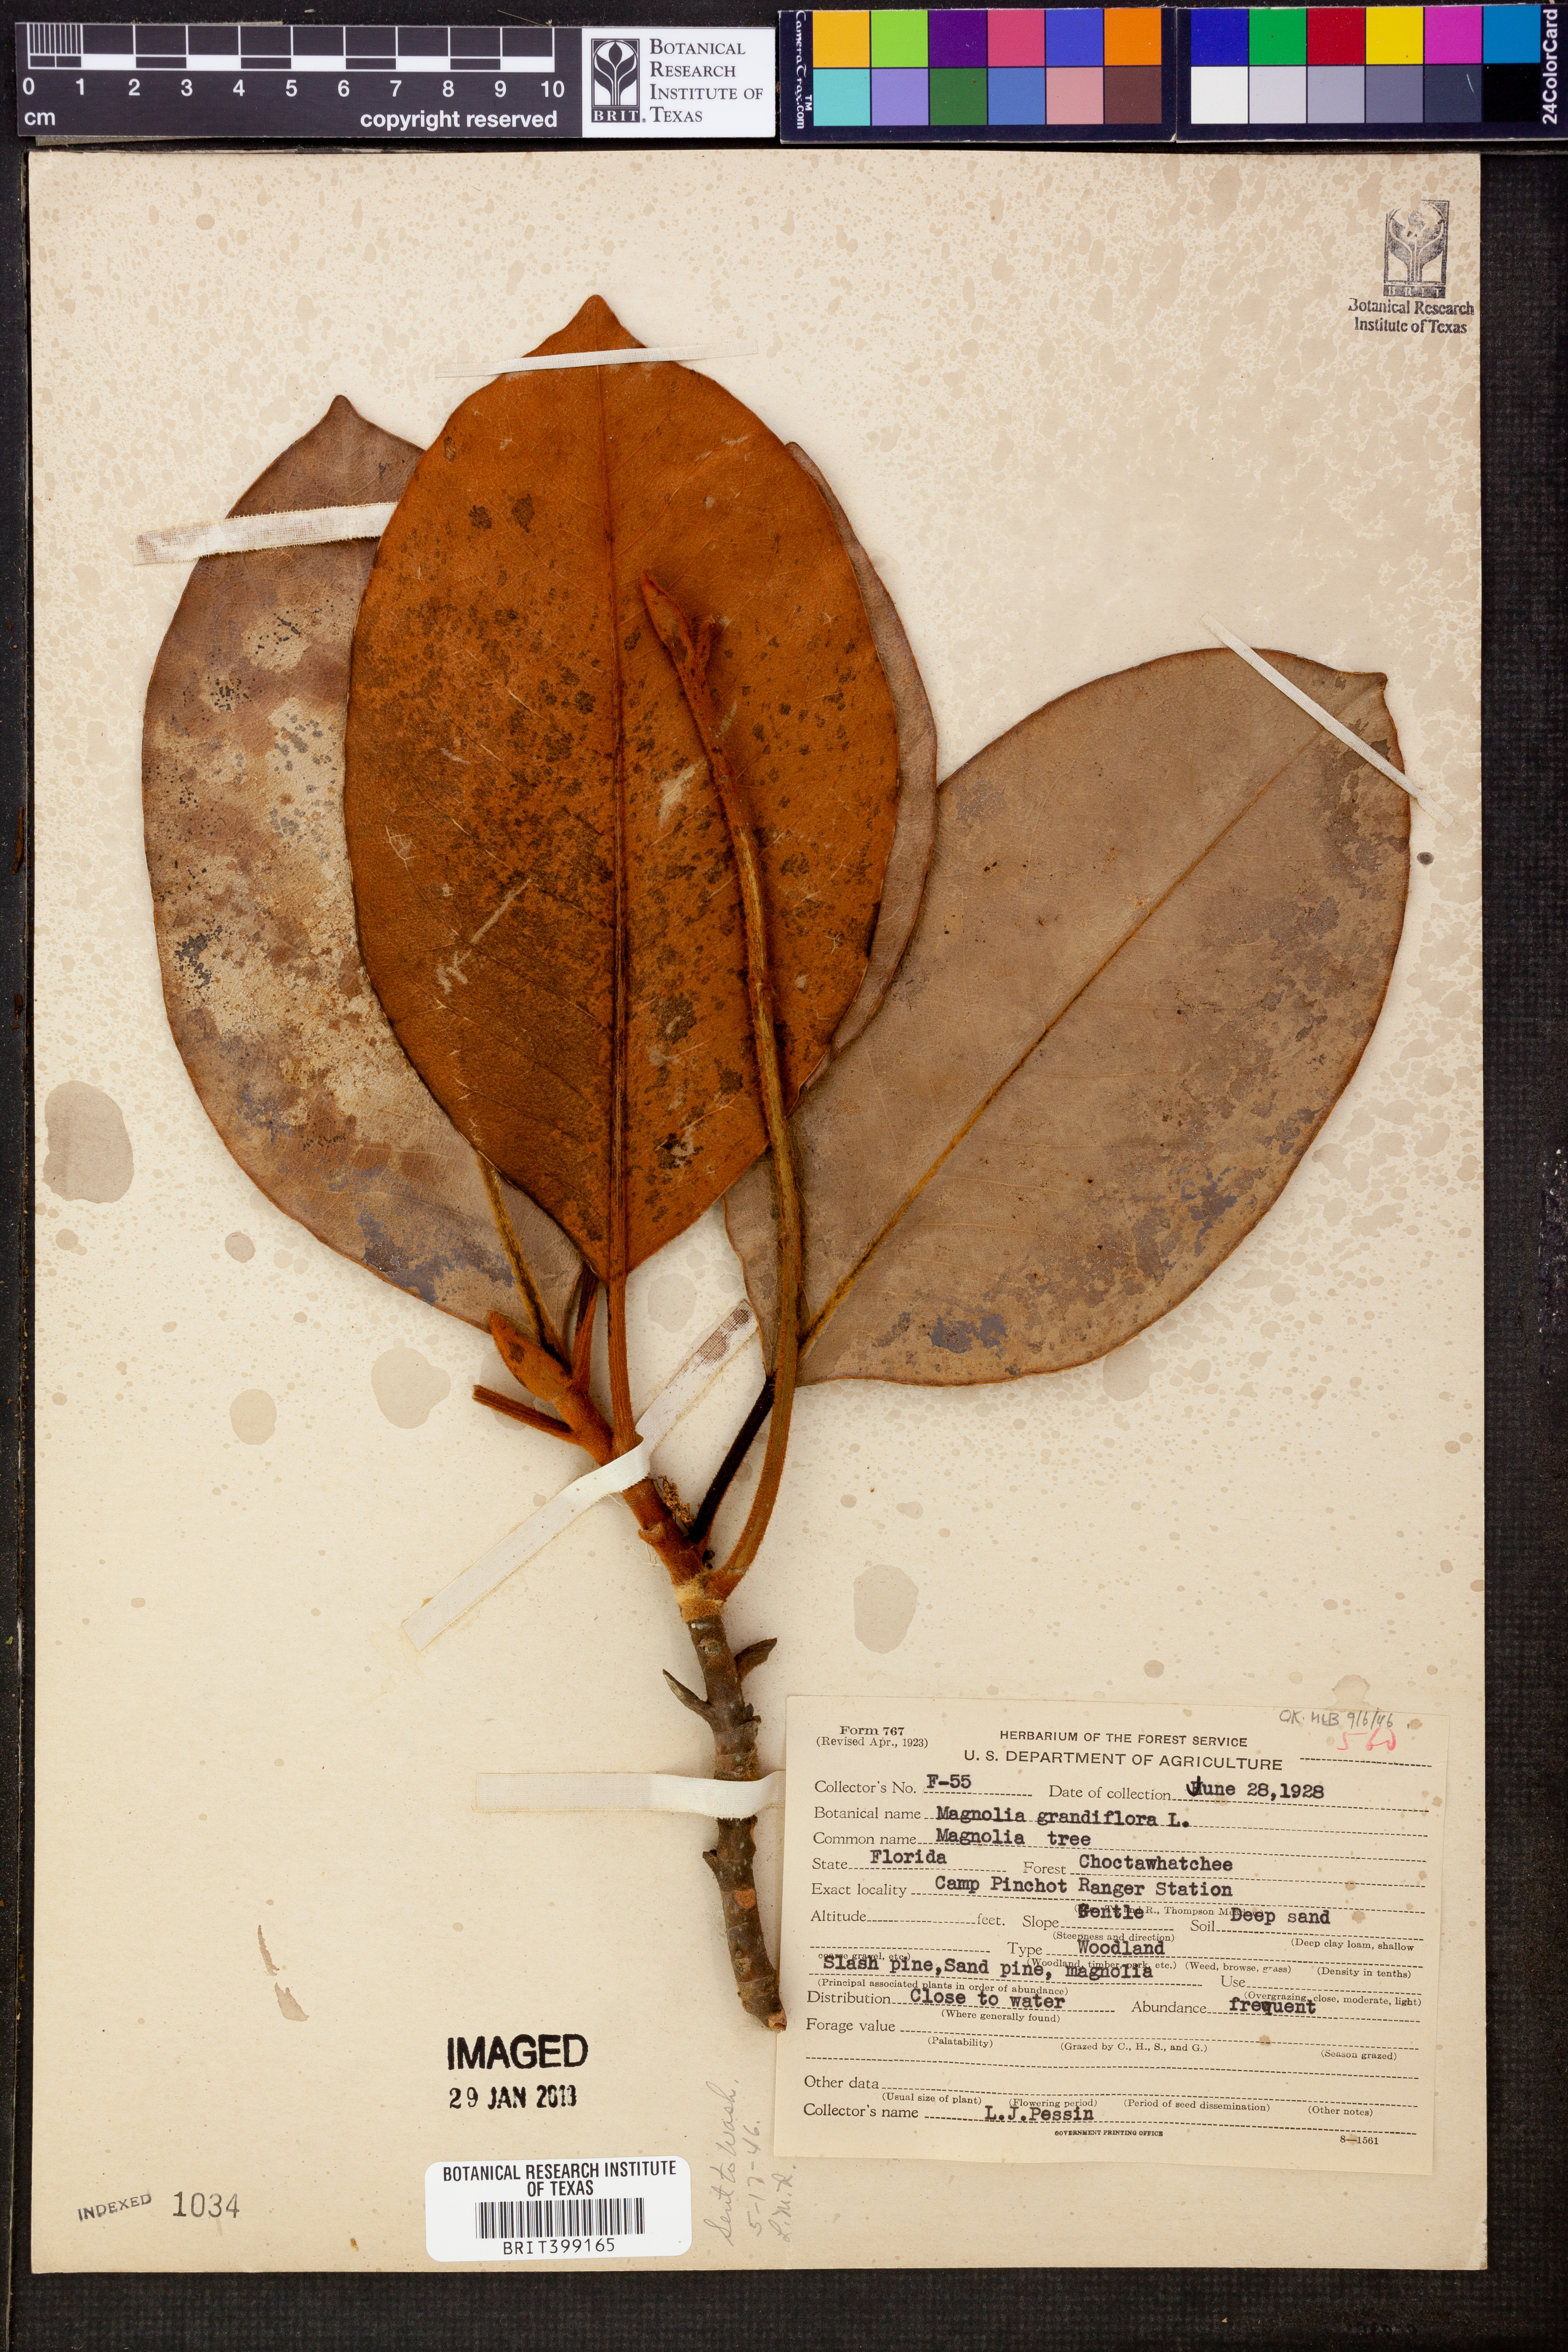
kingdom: Plantae
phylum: Tracheophyta
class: Magnoliopsida
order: Magnoliales
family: Magnoliaceae
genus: Magnolia
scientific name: Magnolia grandiflora
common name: Southern magnolia
